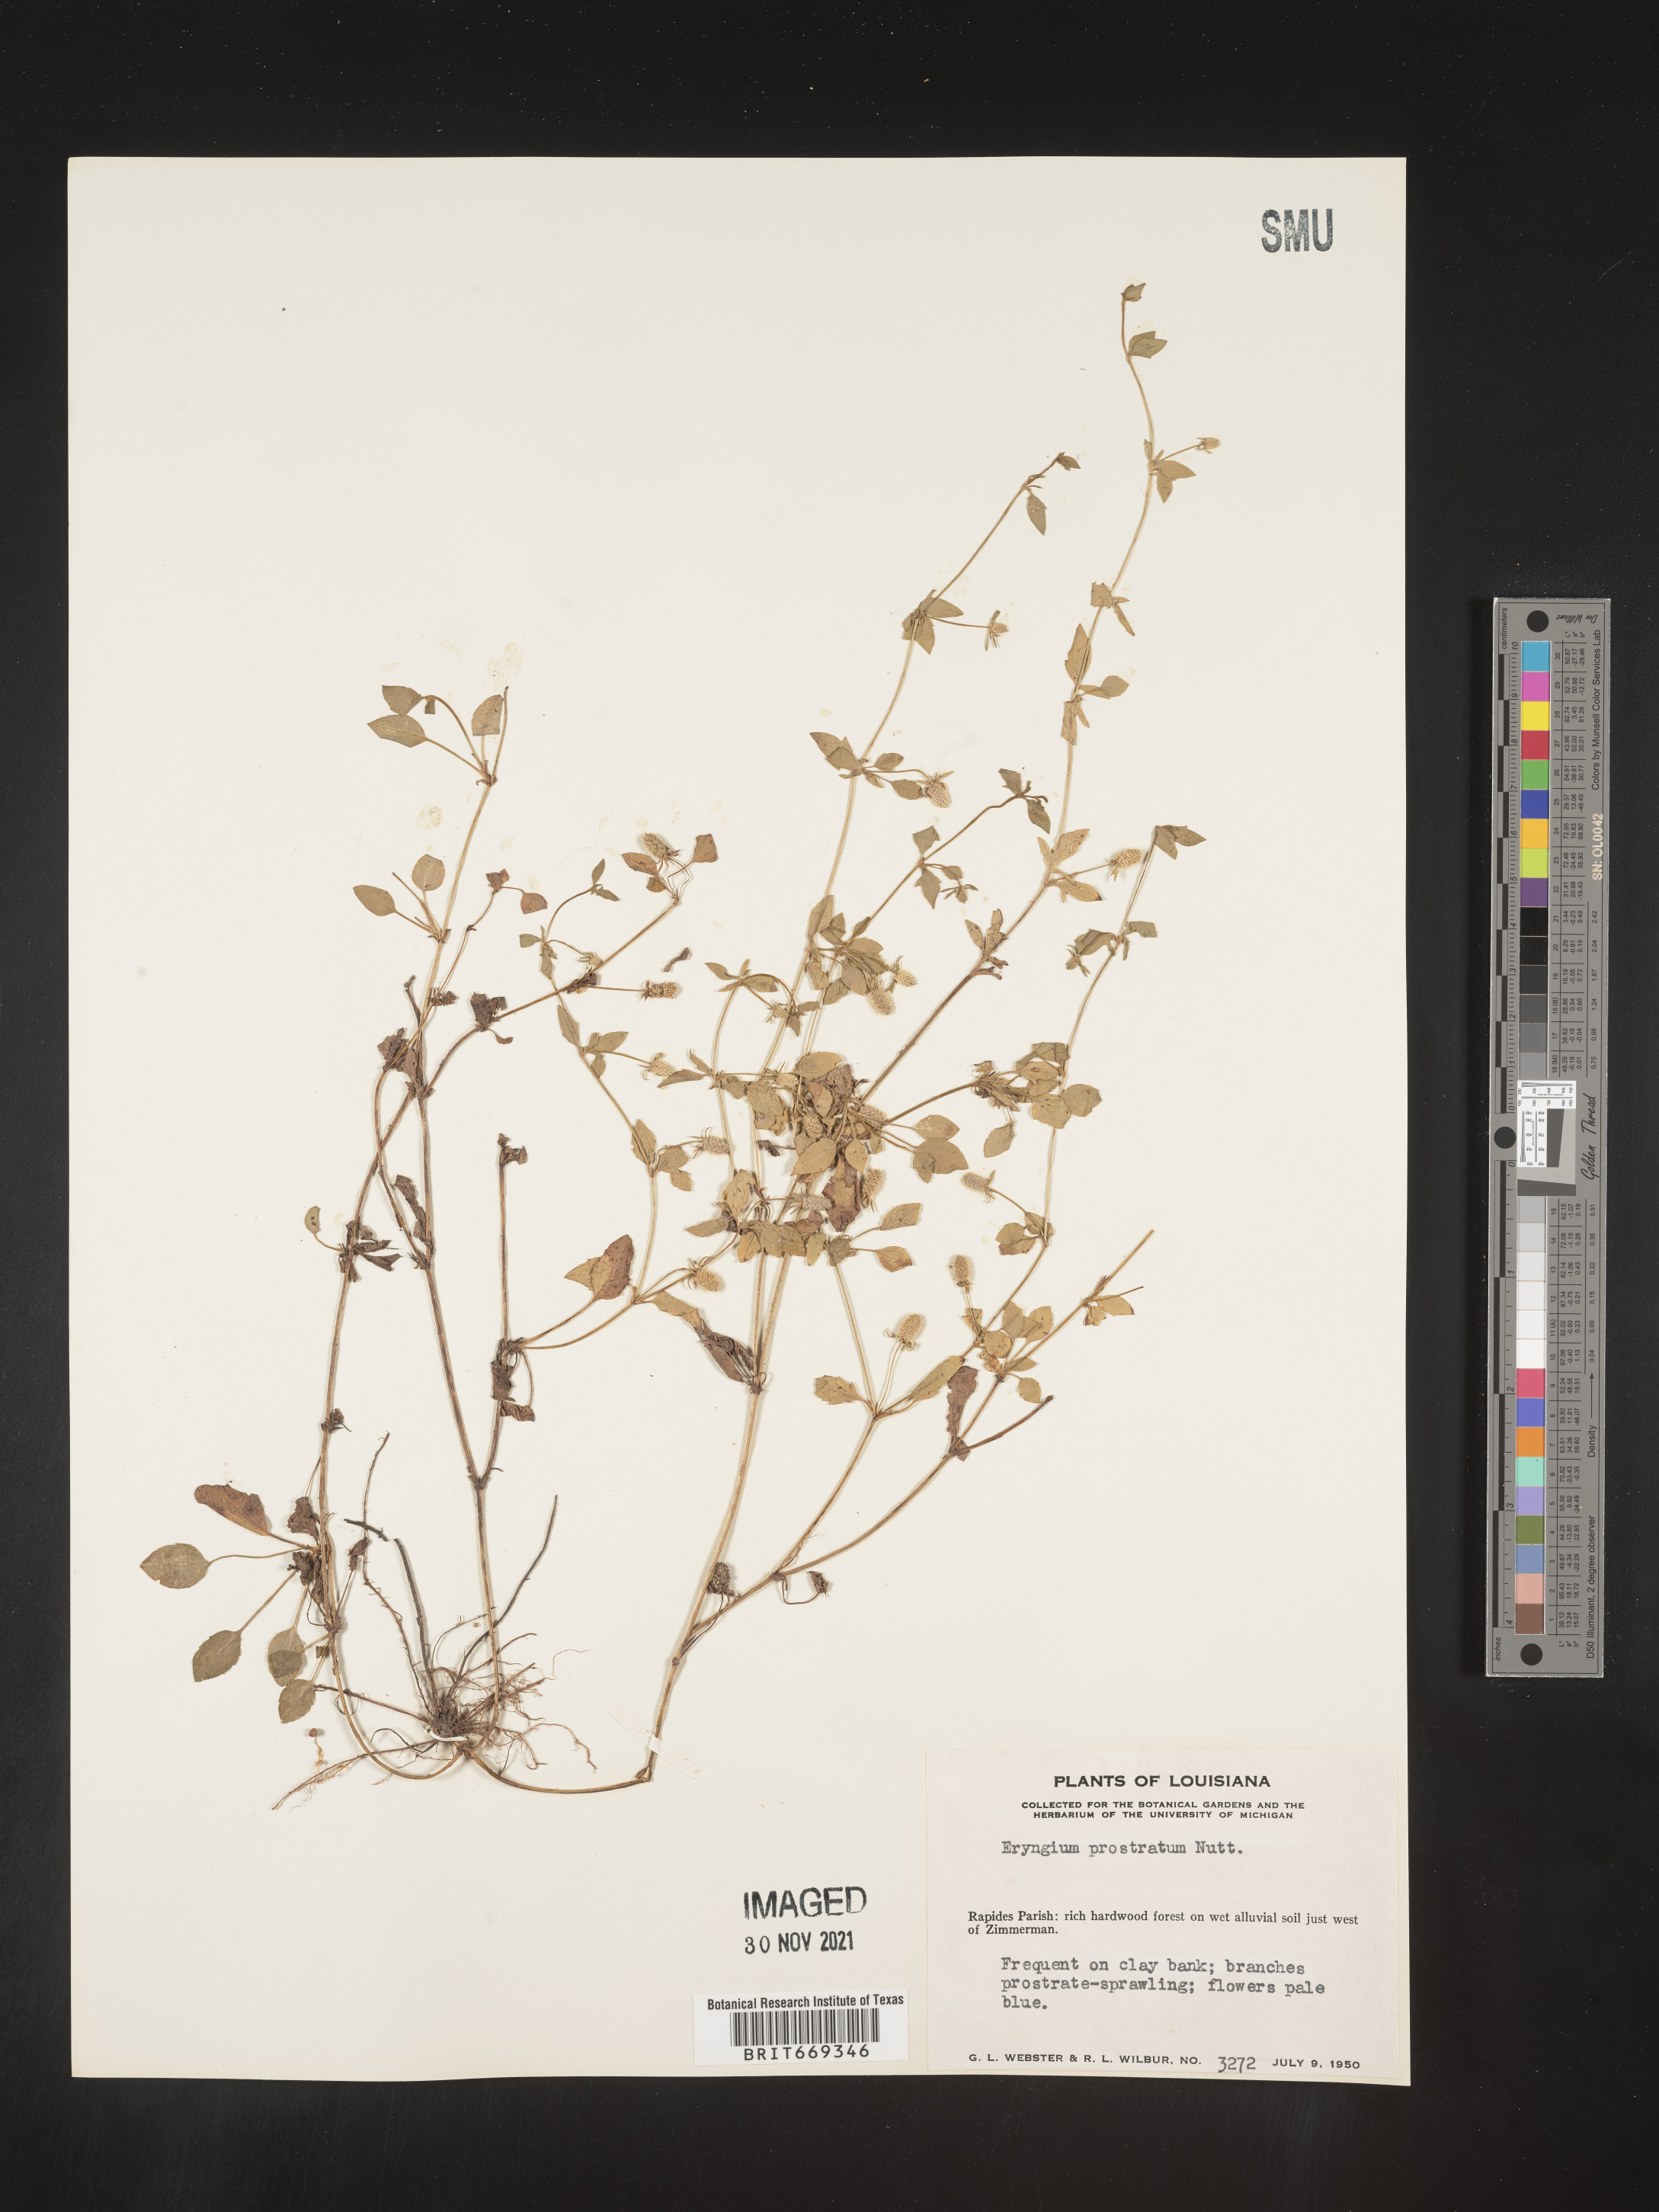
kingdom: Plantae
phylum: Tracheophyta
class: Magnoliopsida
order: Apiales
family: Apiaceae
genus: Eryngium
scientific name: Eryngium prostratum
